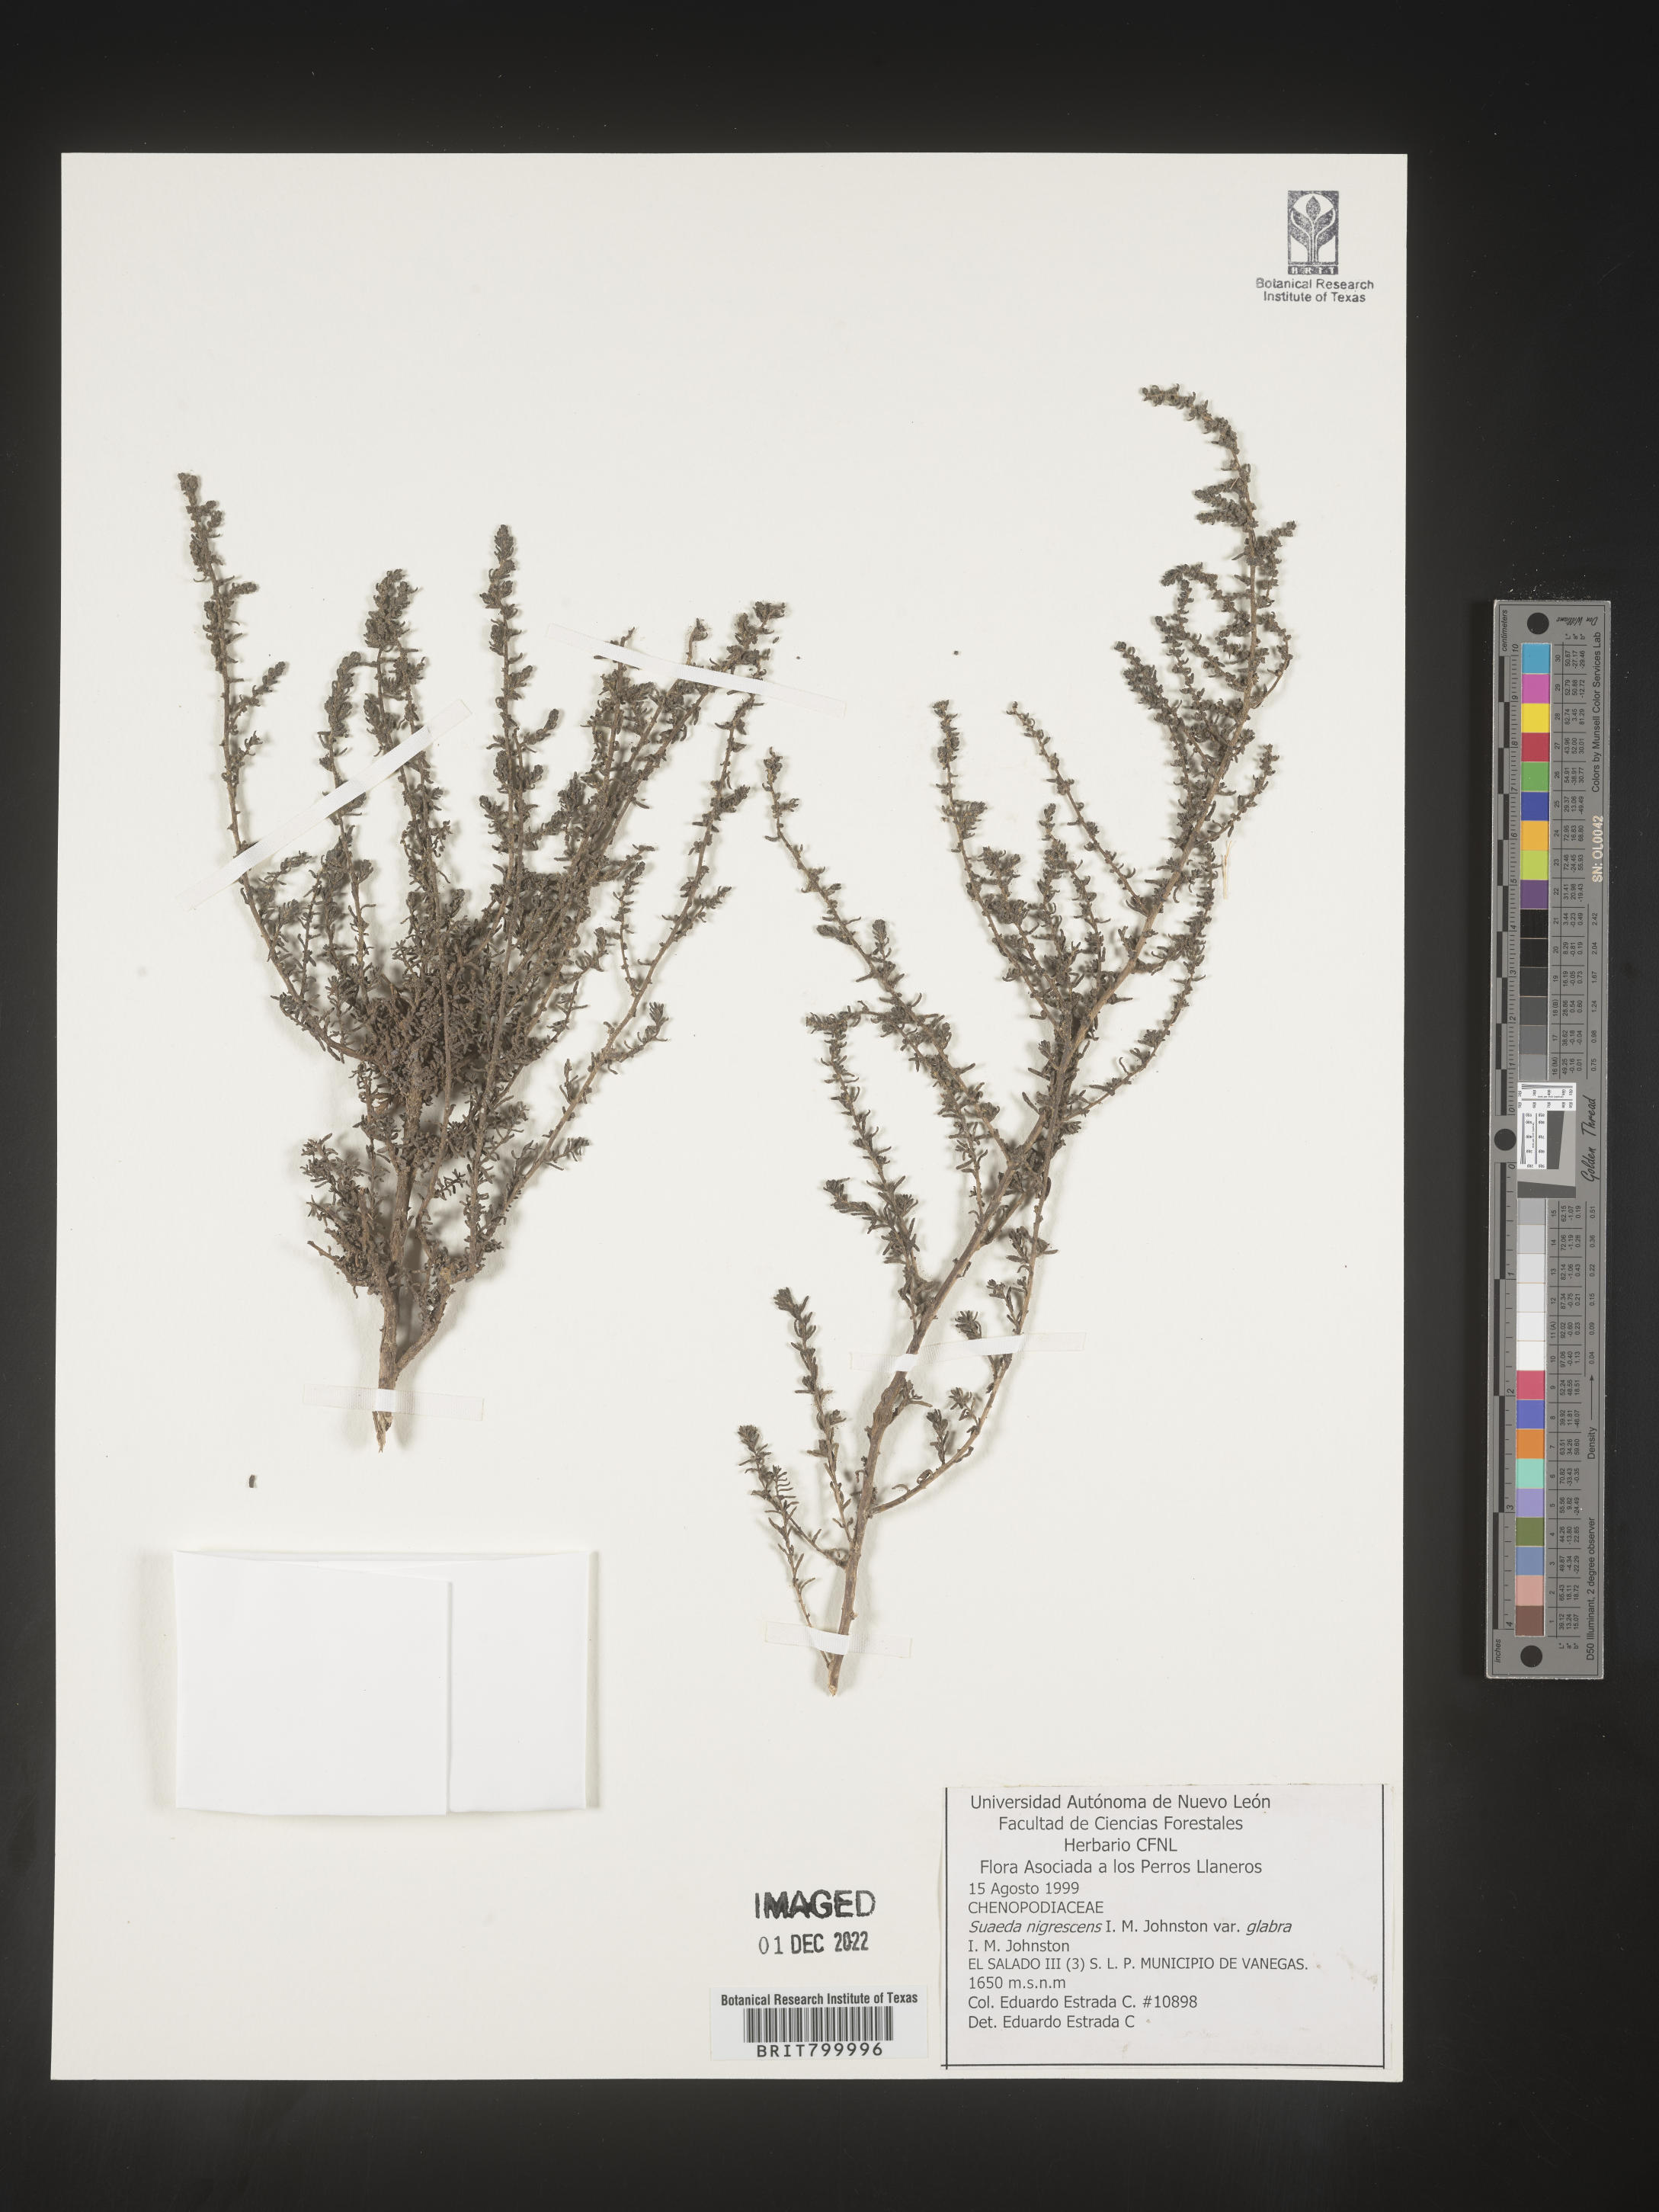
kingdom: Plantae
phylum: Tracheophyta
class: Magnoliopsida
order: Caryophyllales
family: Amaranthaceae
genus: Suaeda
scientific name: Suaeda
